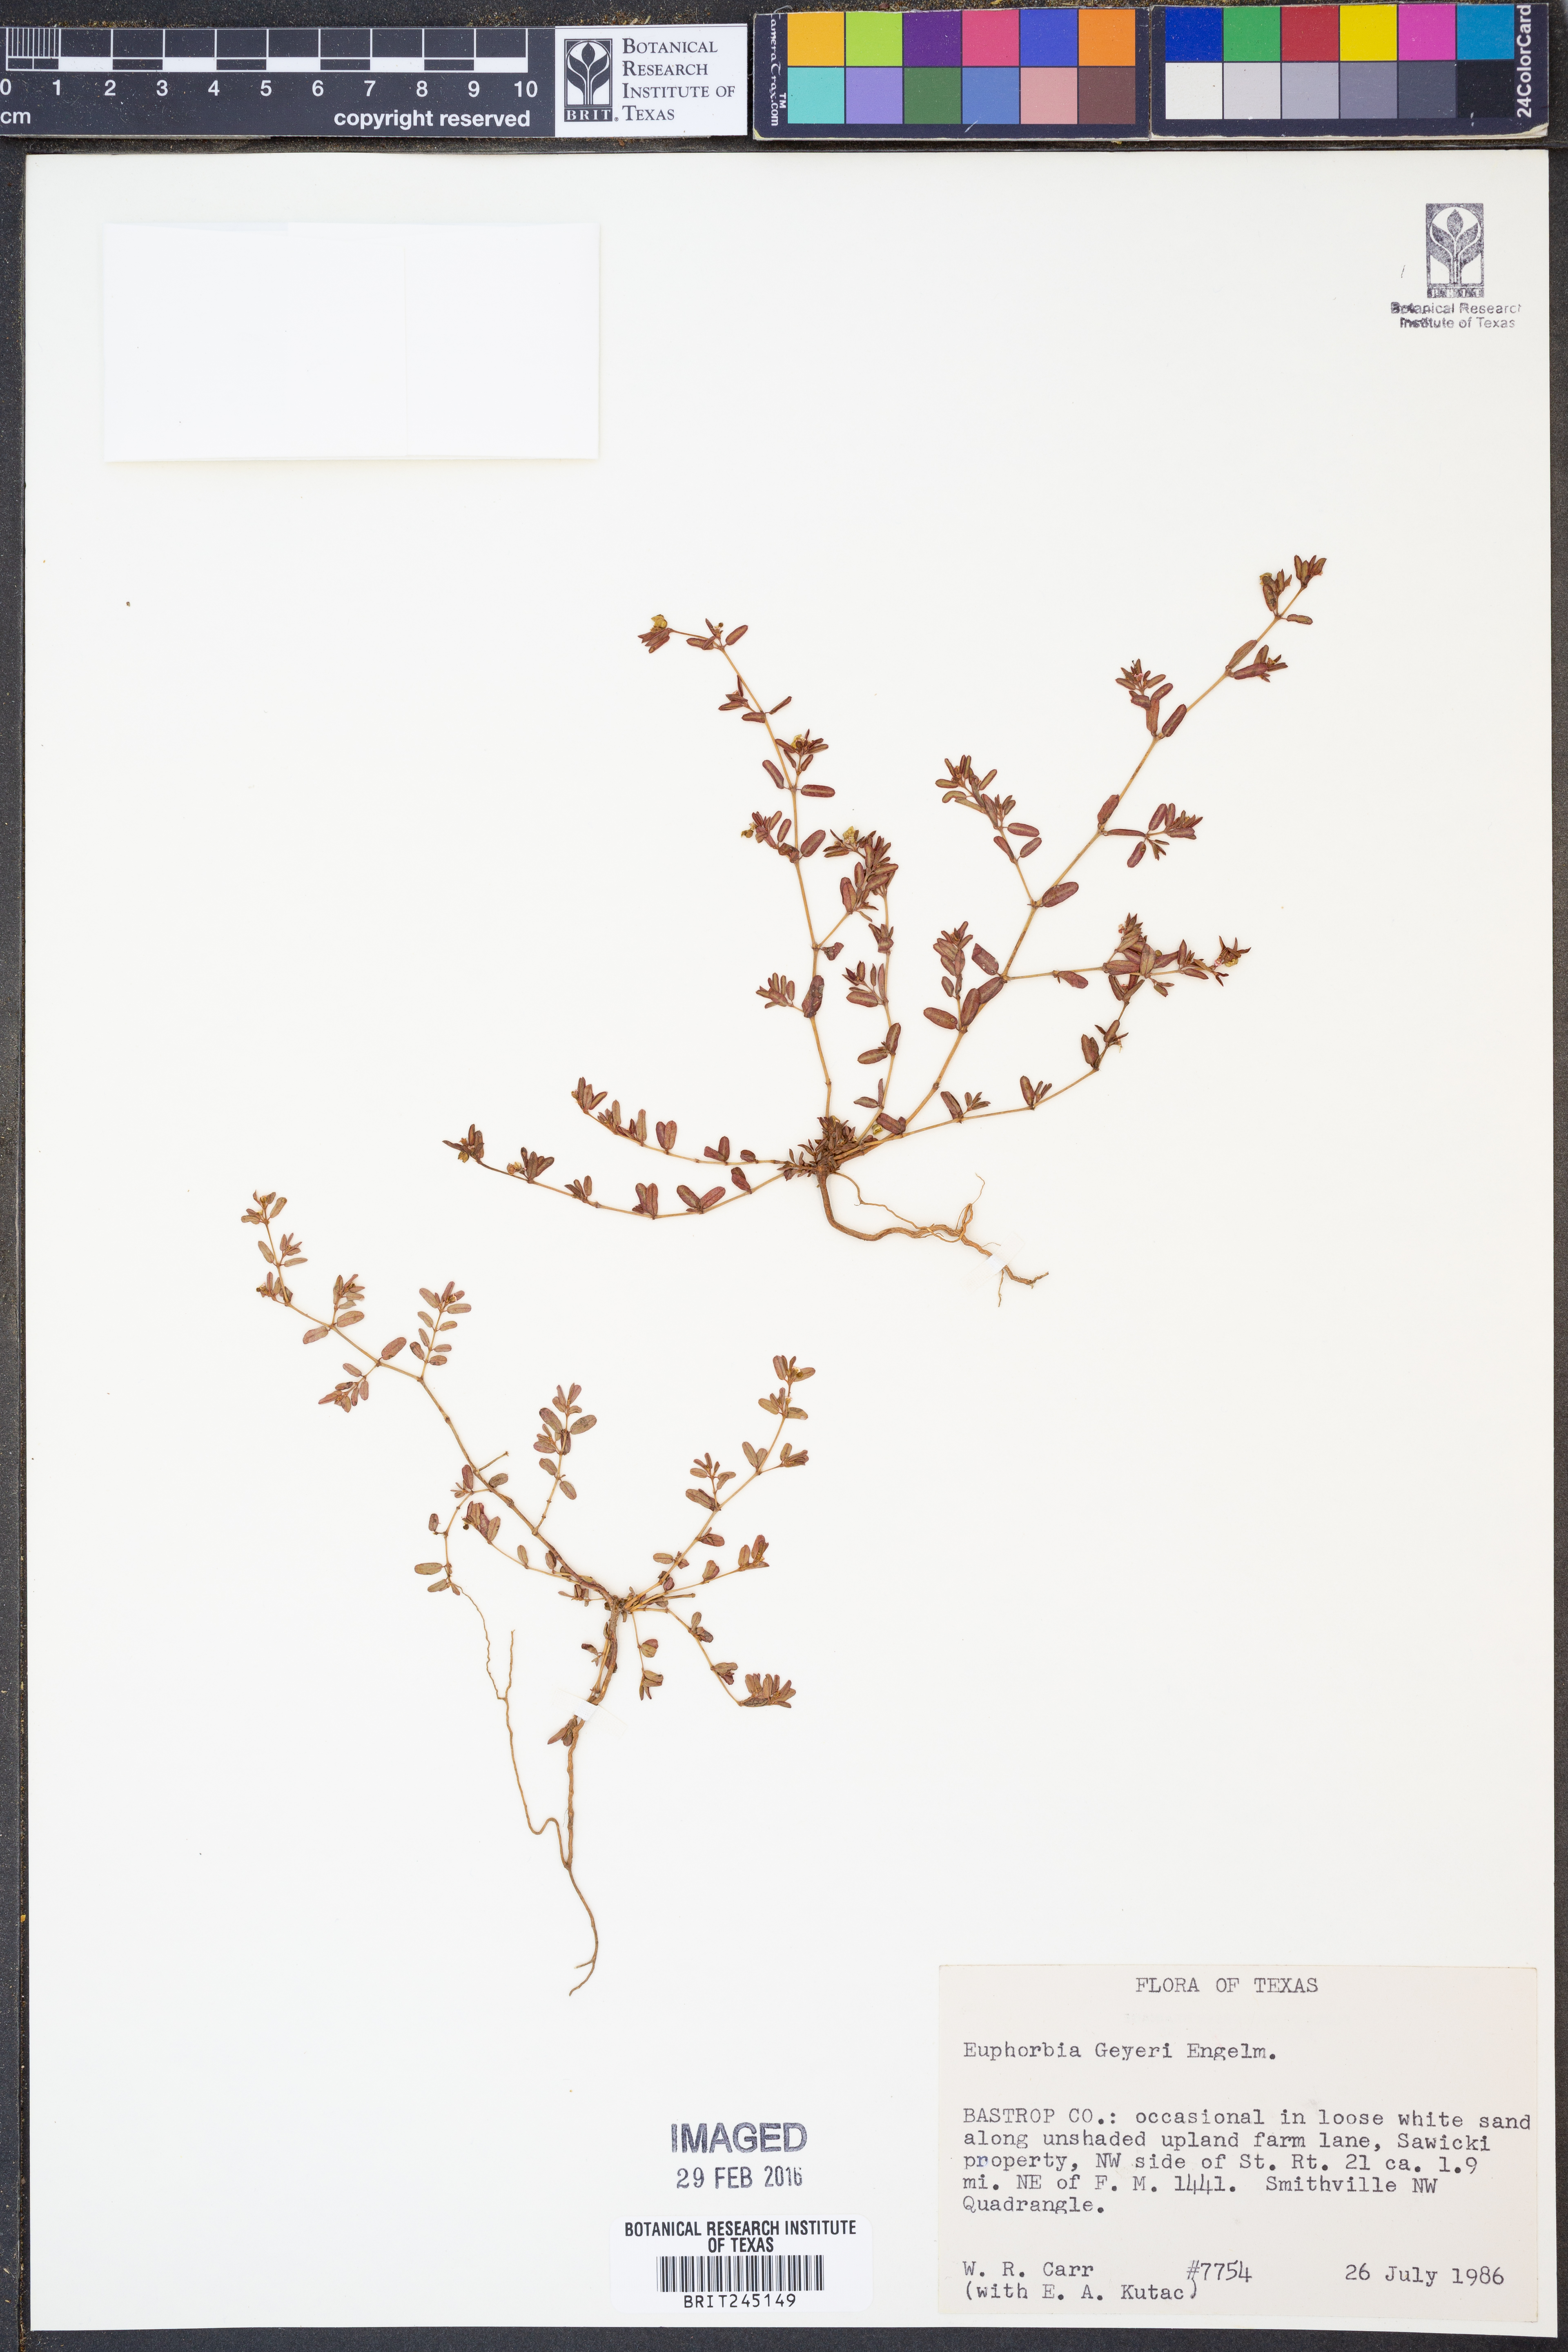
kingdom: Plantae
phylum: Tracheophyta
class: Magnoliopsida
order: Malpighiales
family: Euphorbiaceae
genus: Euphorbia
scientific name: Euphorbia geyeri
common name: Geyer's spurge
